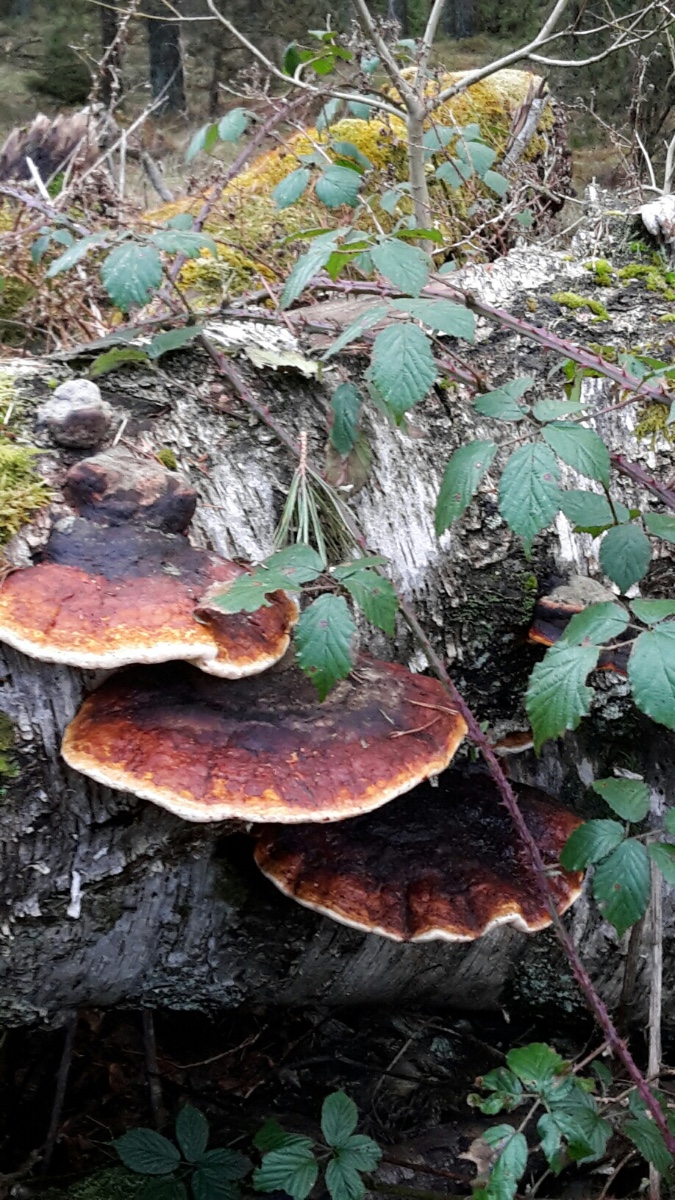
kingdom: Fungi
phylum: Basidiomycota
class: Agaricomycetes
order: Polyporales
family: Fomitopsidaceae
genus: Fomitopsis
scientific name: Fomitopsis pinicola
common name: randbæltet hovporesvamp
